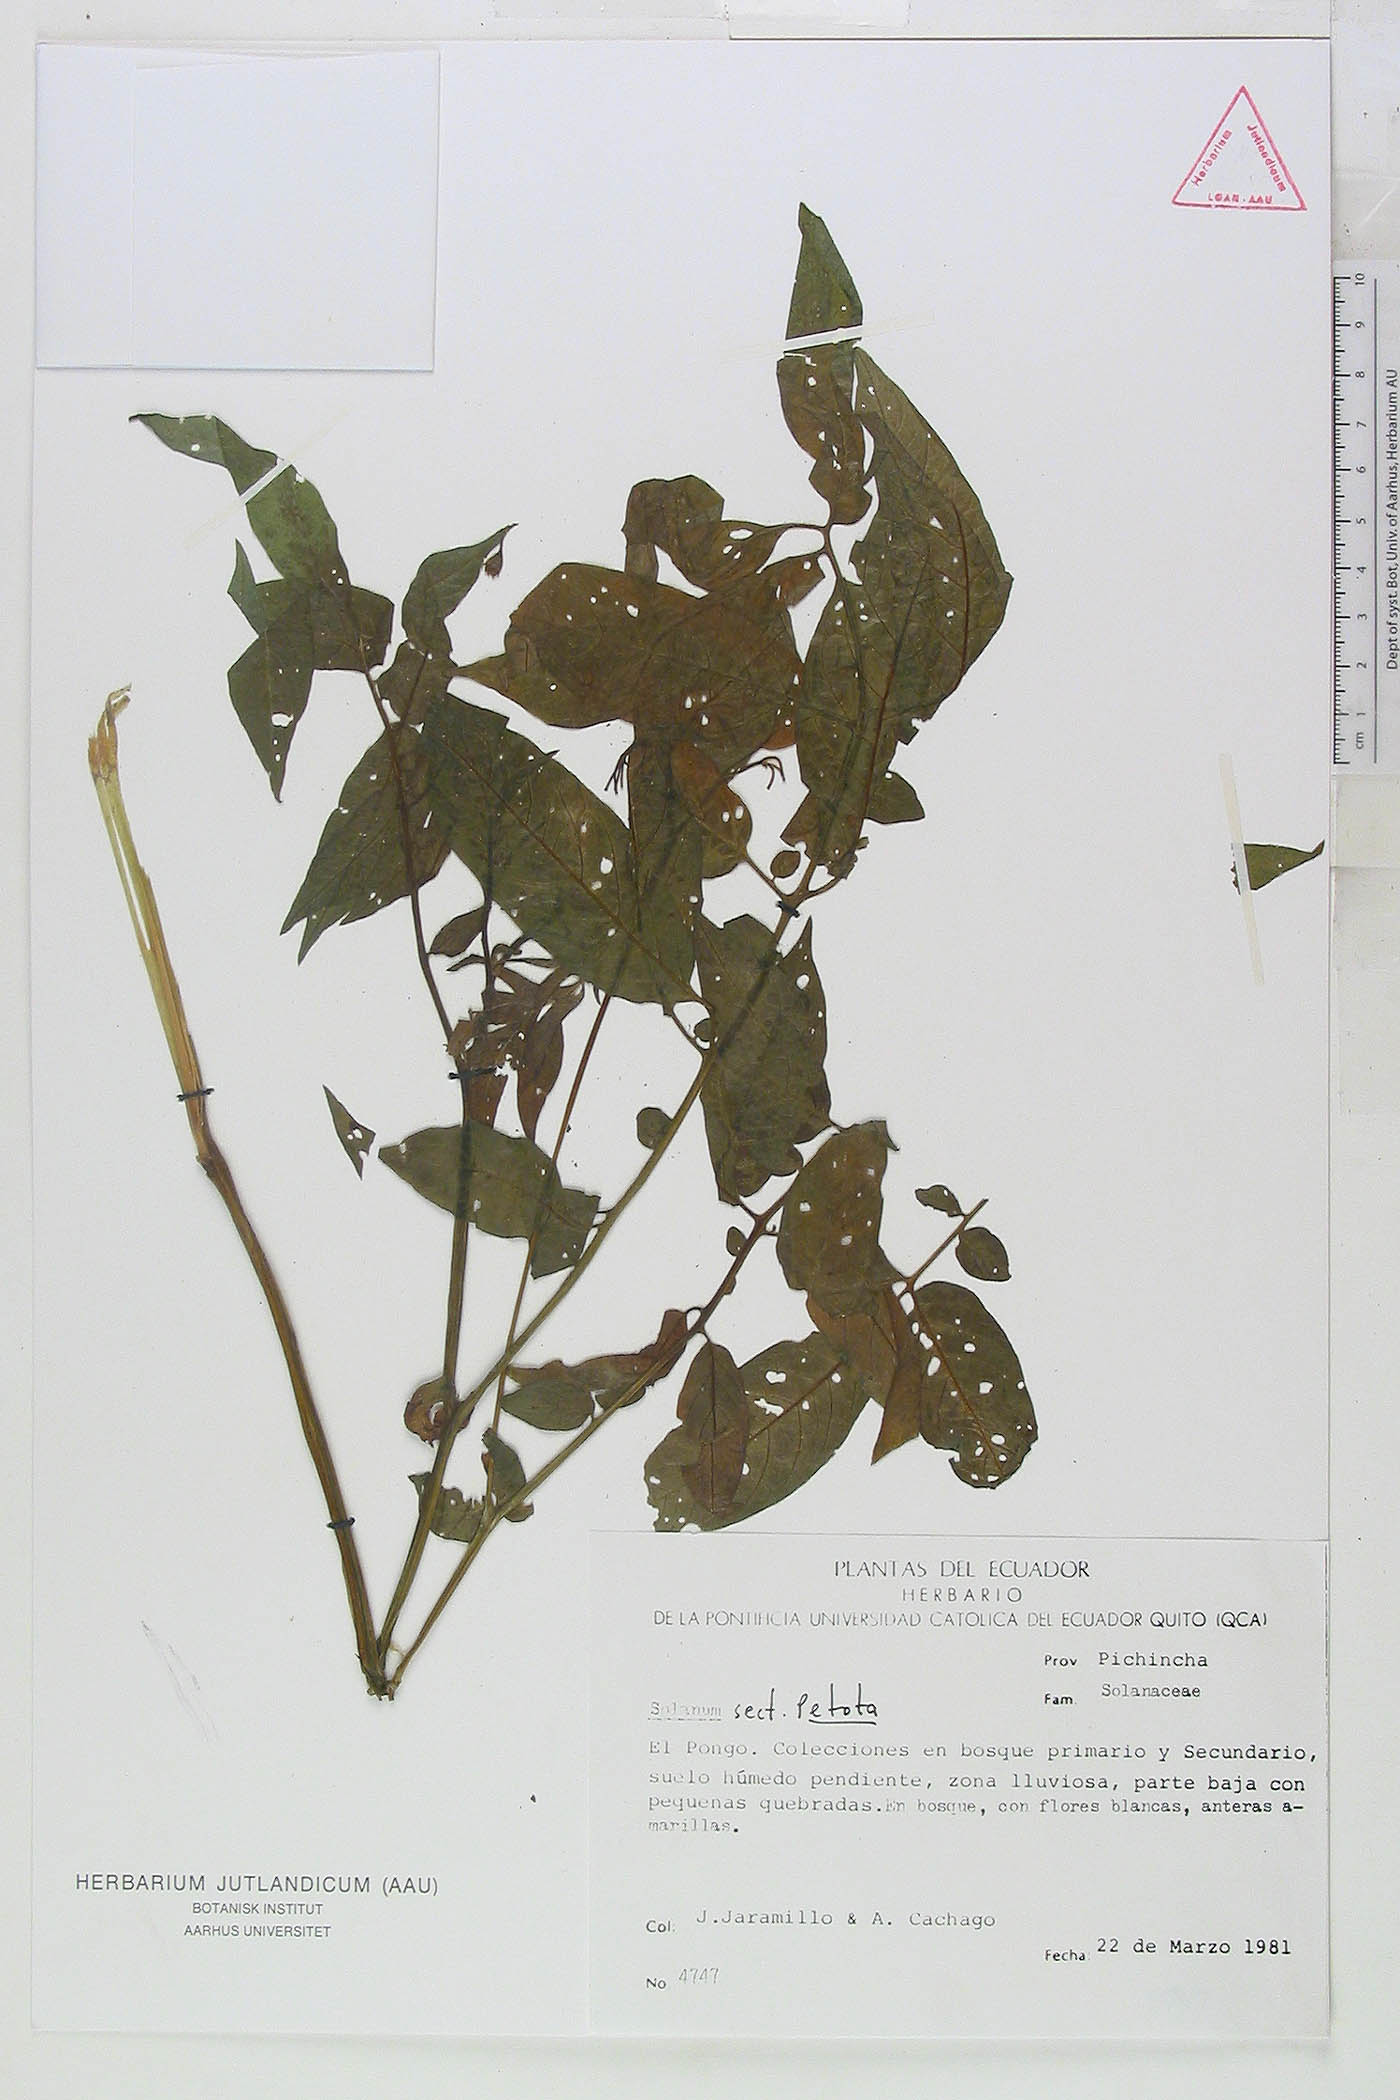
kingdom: Plantae
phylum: Tracheophyta
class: Magnoliopsida
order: Solanales
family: Solanaceae
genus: Solanum
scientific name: Solanum colombianum
